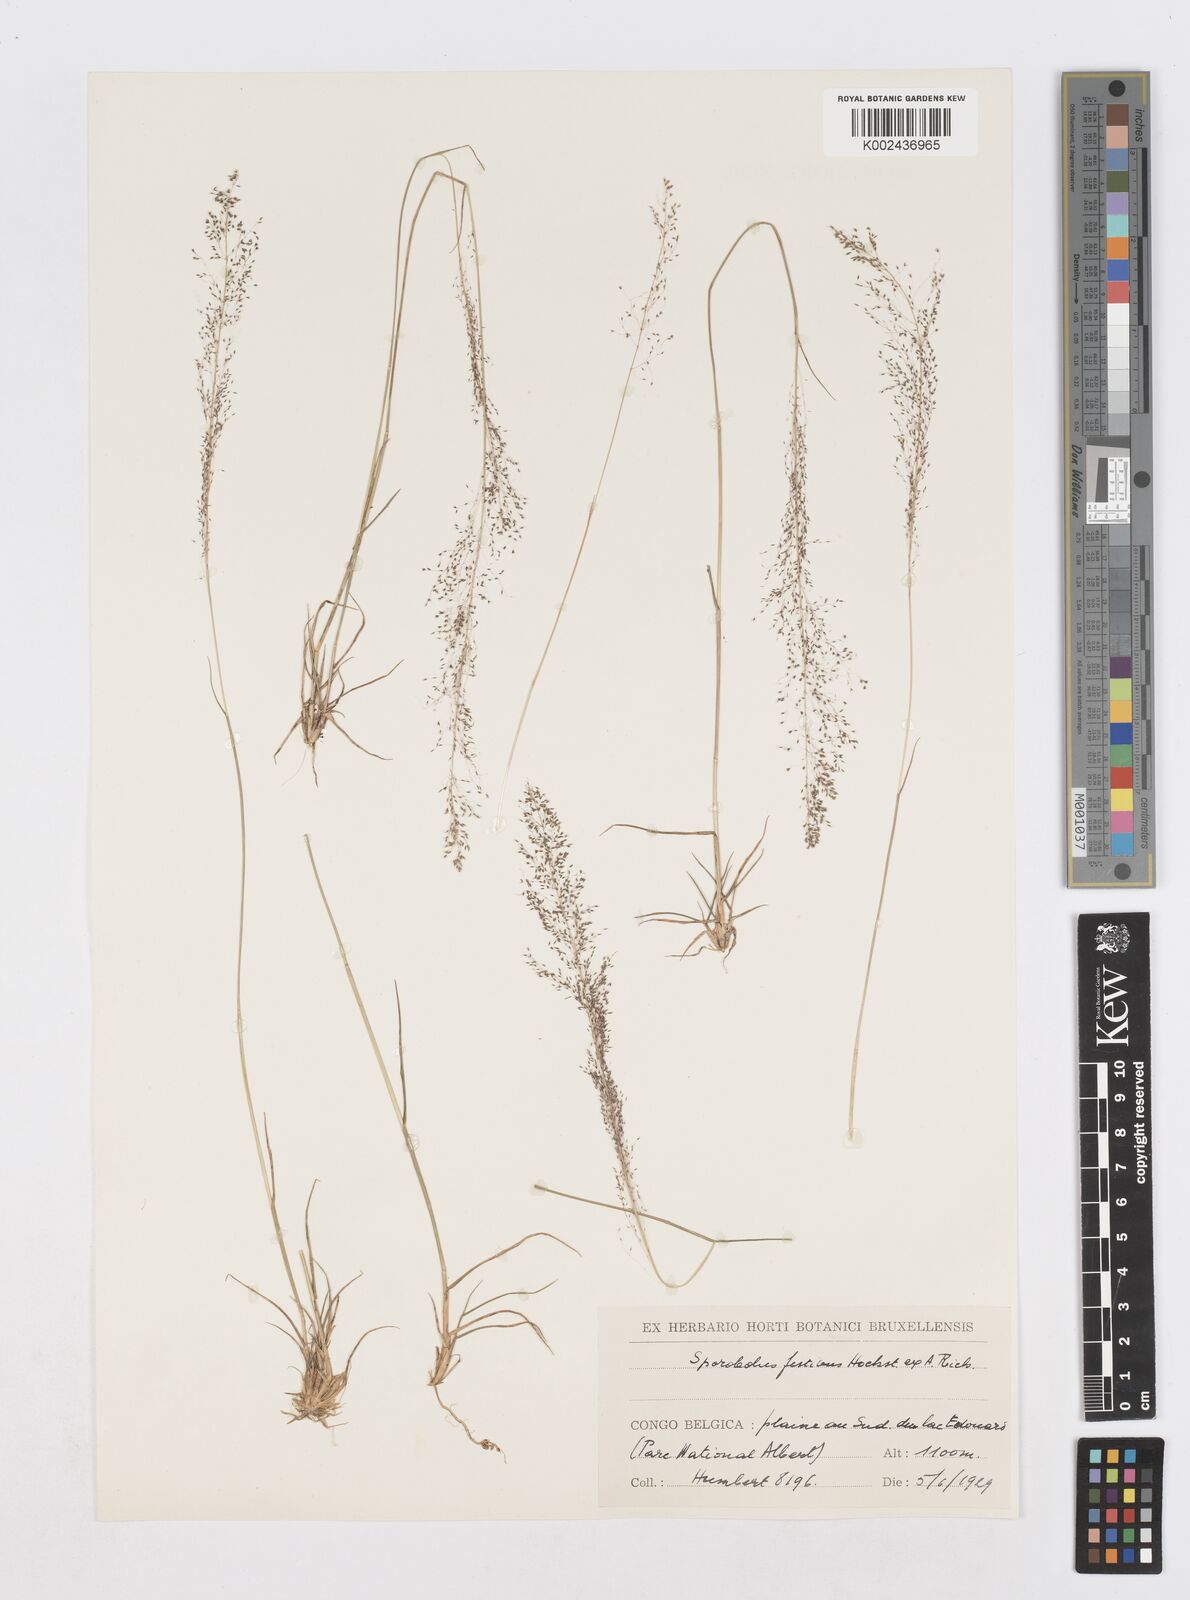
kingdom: Plantae
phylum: Tracheophyta
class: Liliopsida
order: Poales
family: Poaceae
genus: Sporobolus
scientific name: Sporobolus festivus
